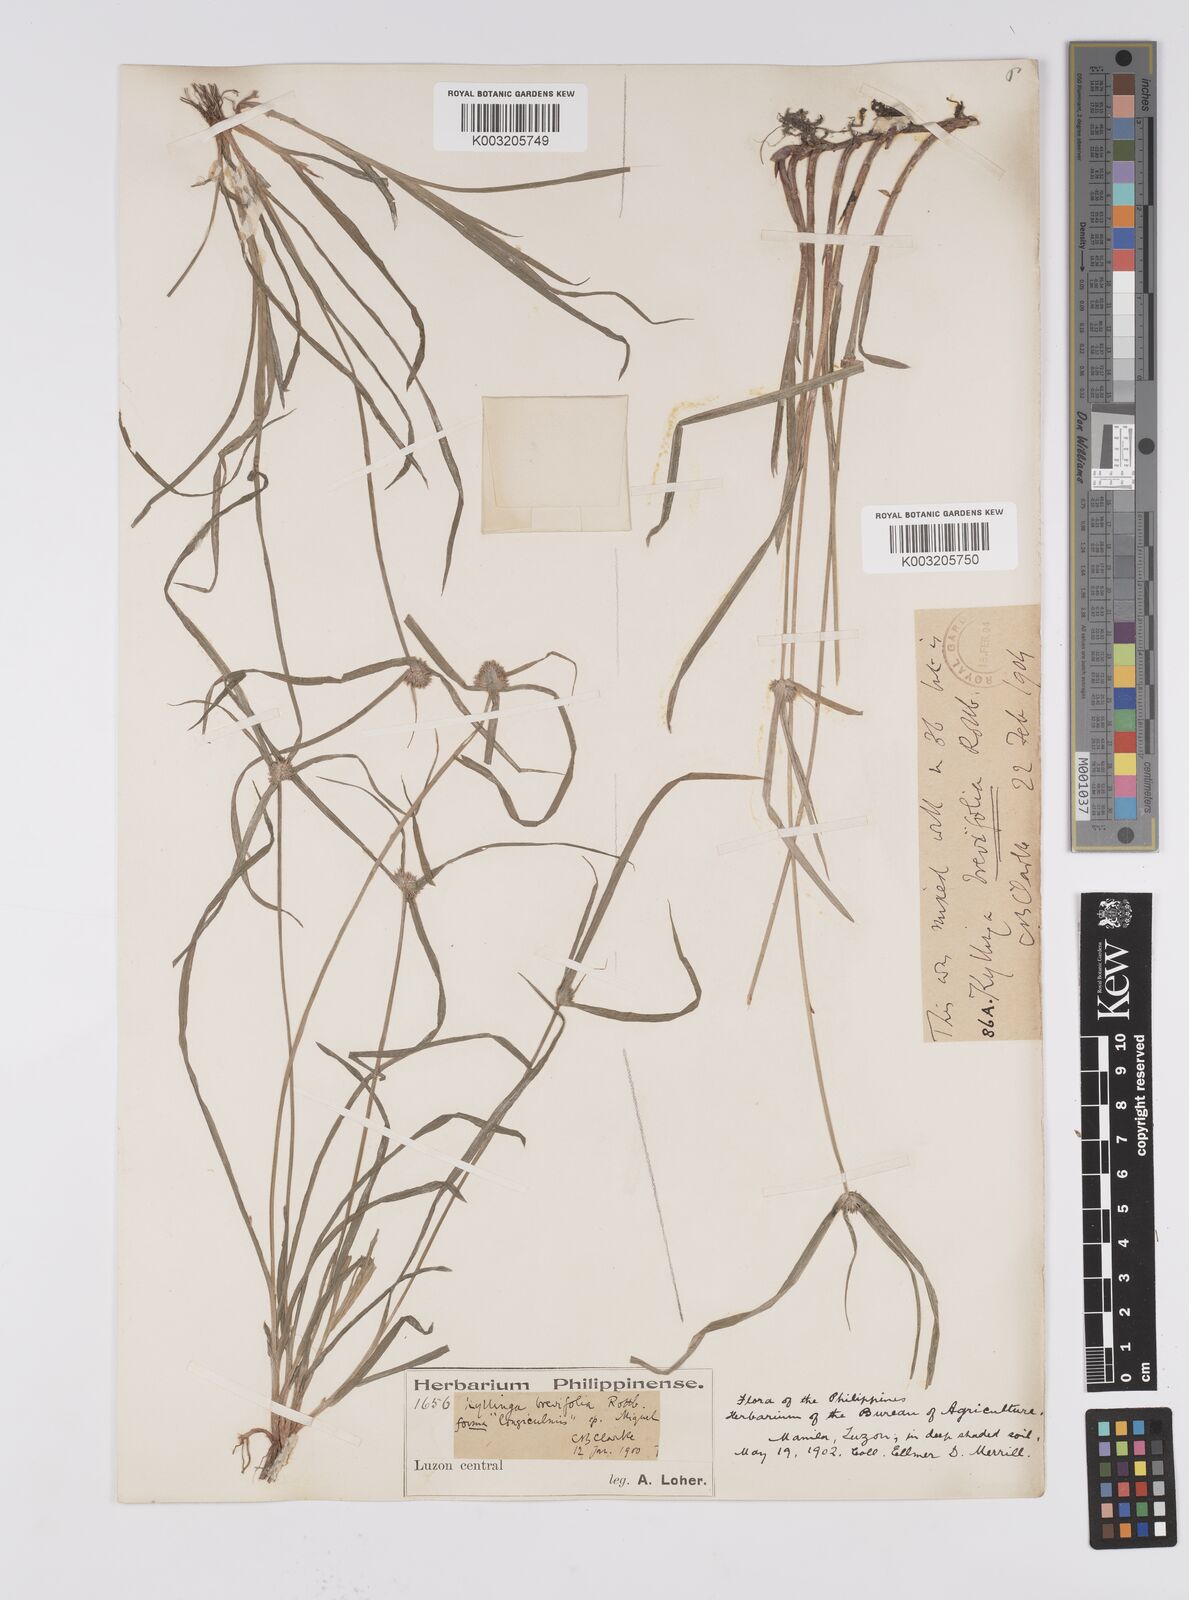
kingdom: Plantae
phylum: Tracheophyta
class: Liliopsida
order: Poales
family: Cyperaceae
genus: Cyperus
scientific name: Cyperus brevifolius
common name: Globe kyllinga
